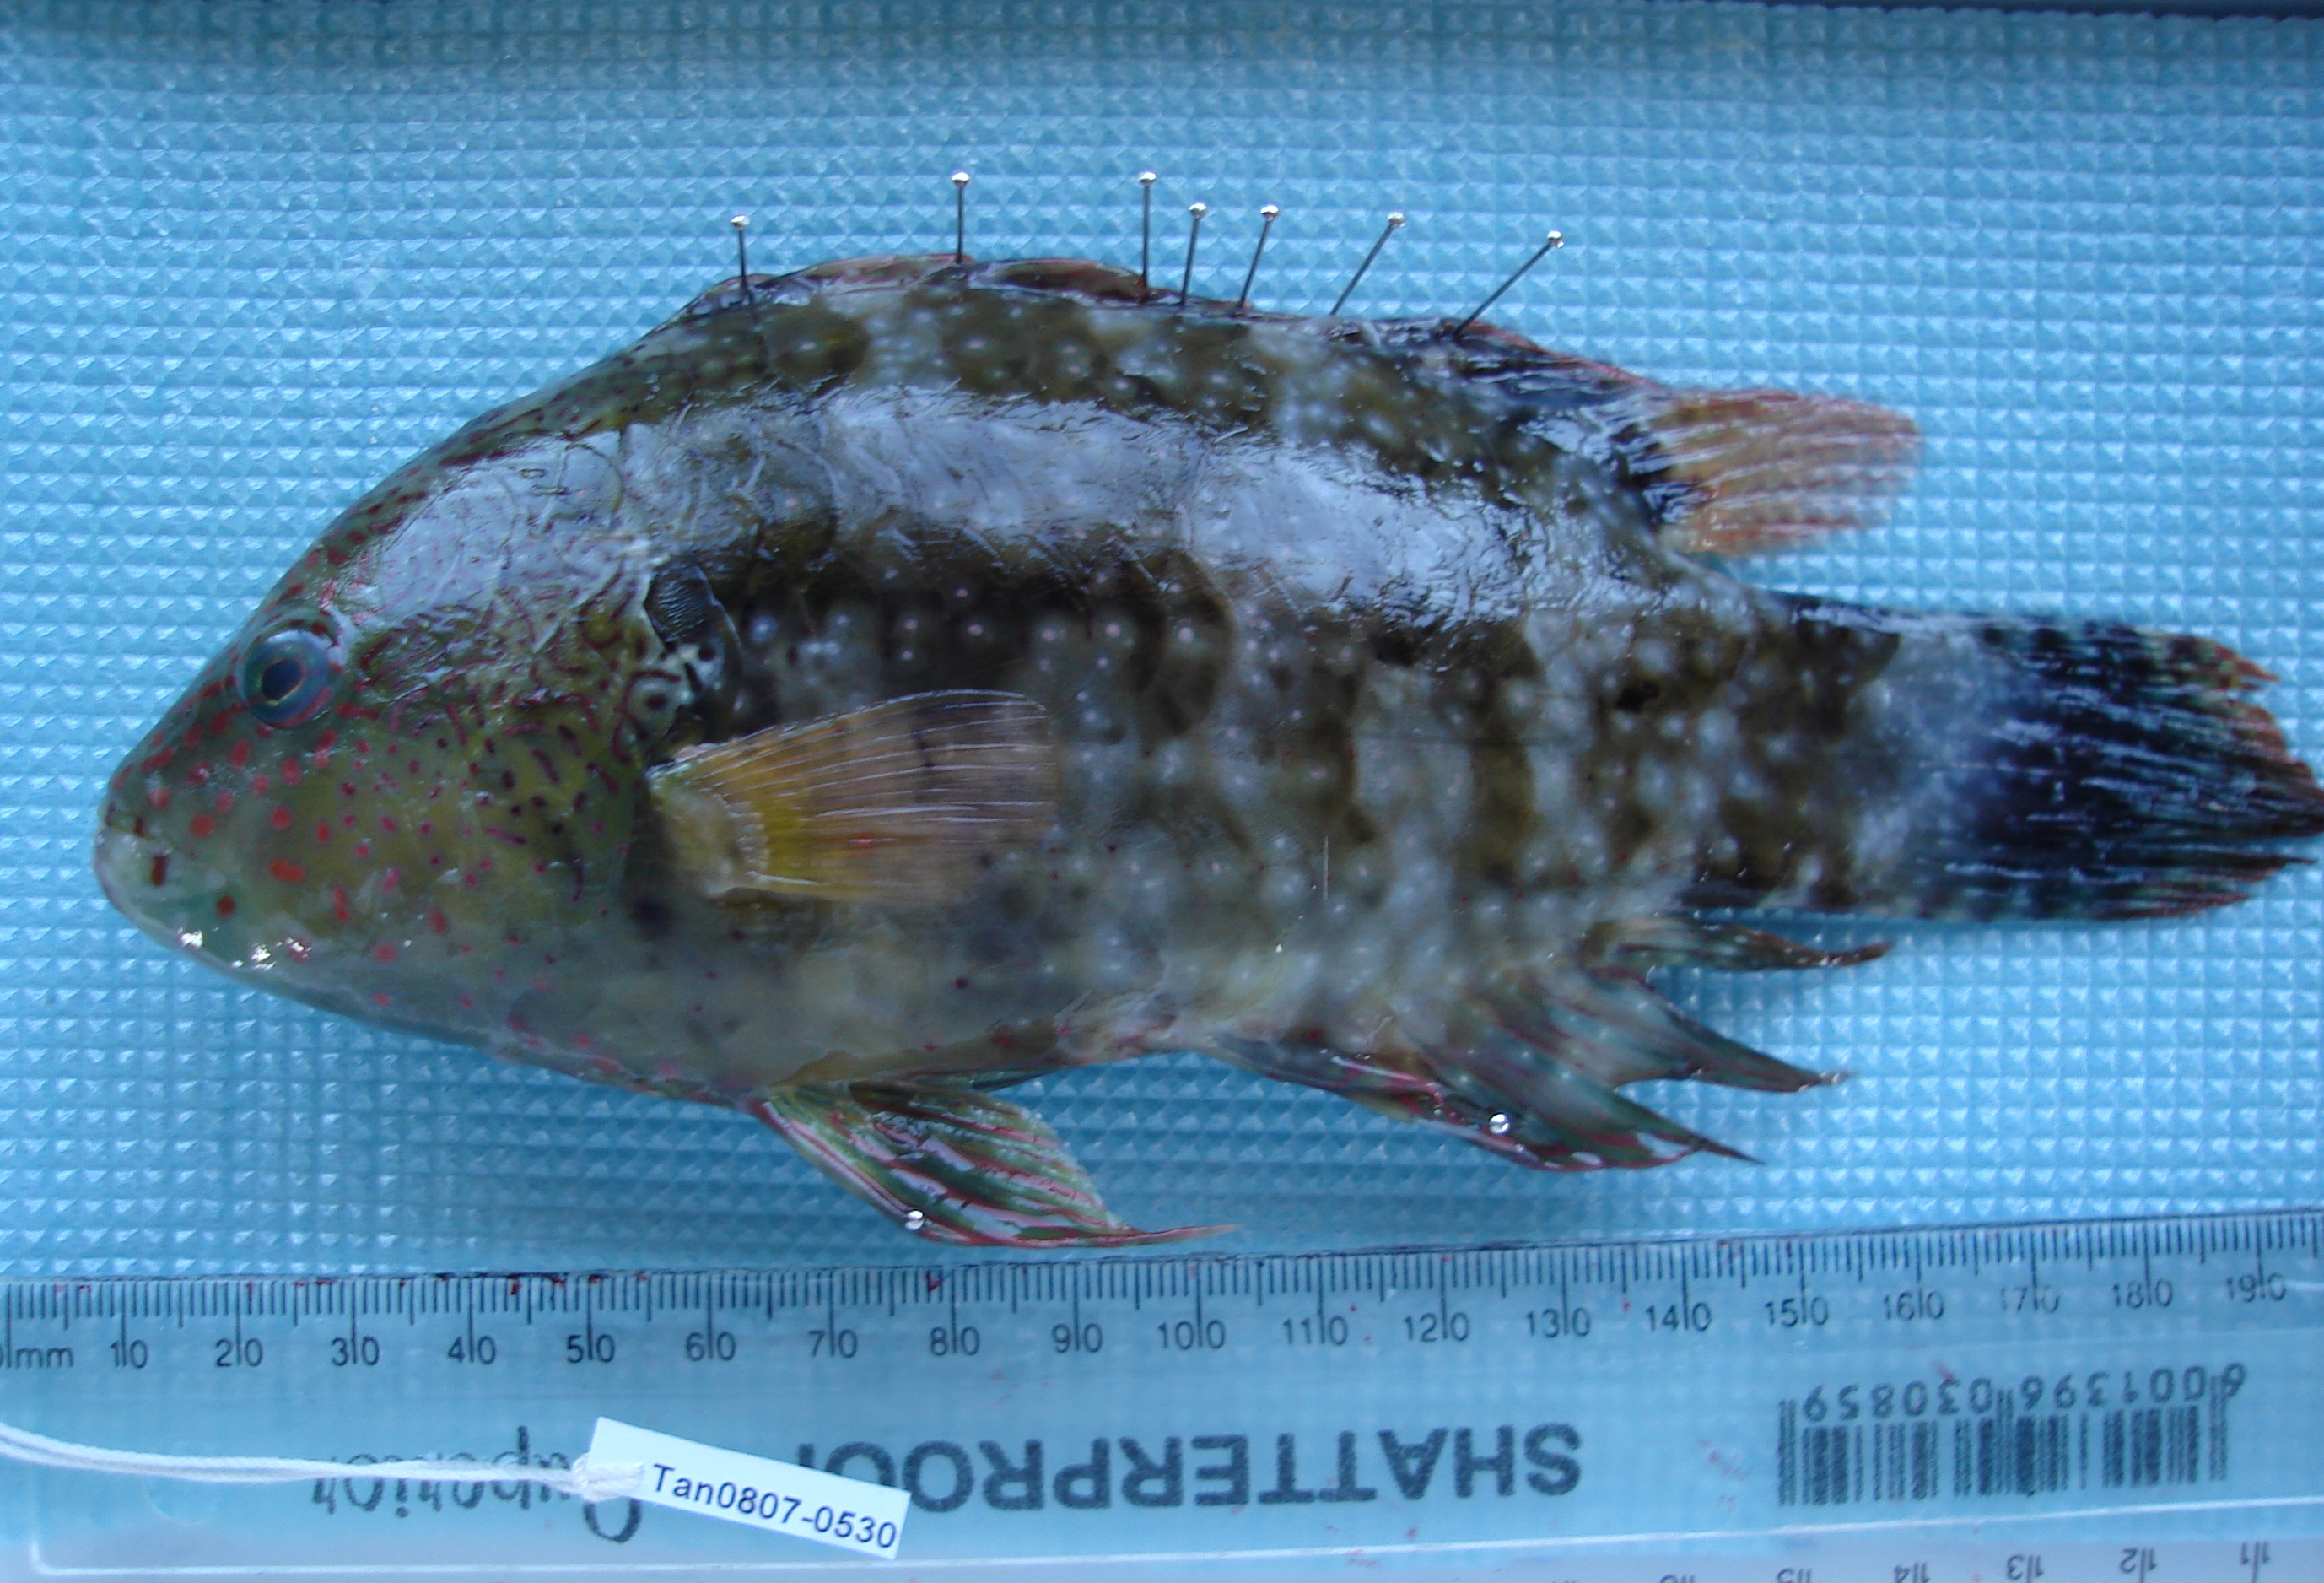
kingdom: Animalia
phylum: Chordata
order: Perciformes
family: Labridae
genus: Cheilinus
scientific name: Cheilinus chlorourus
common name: Floral wrasse
